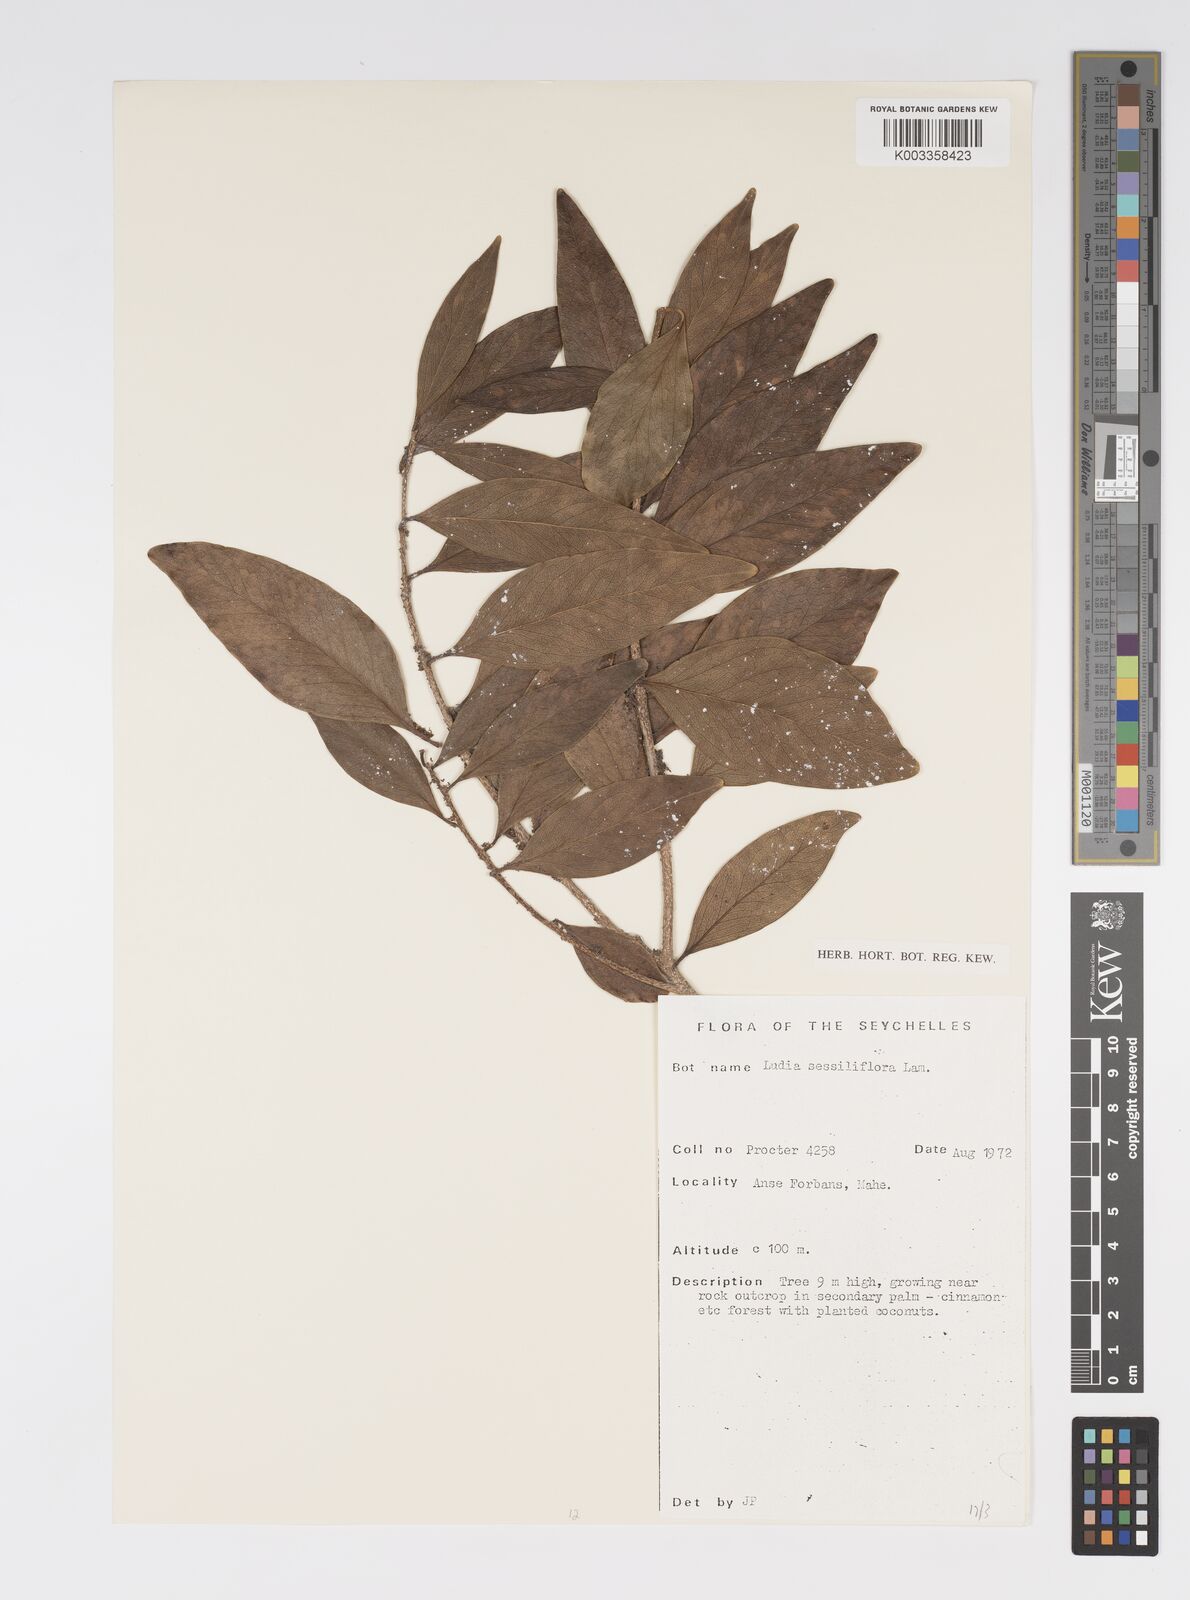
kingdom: Plantae
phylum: Tracheophyta
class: Magnoliopsida
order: Malpighiales
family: Salicaceae
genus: Ludia
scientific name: Ludia mauritiana
